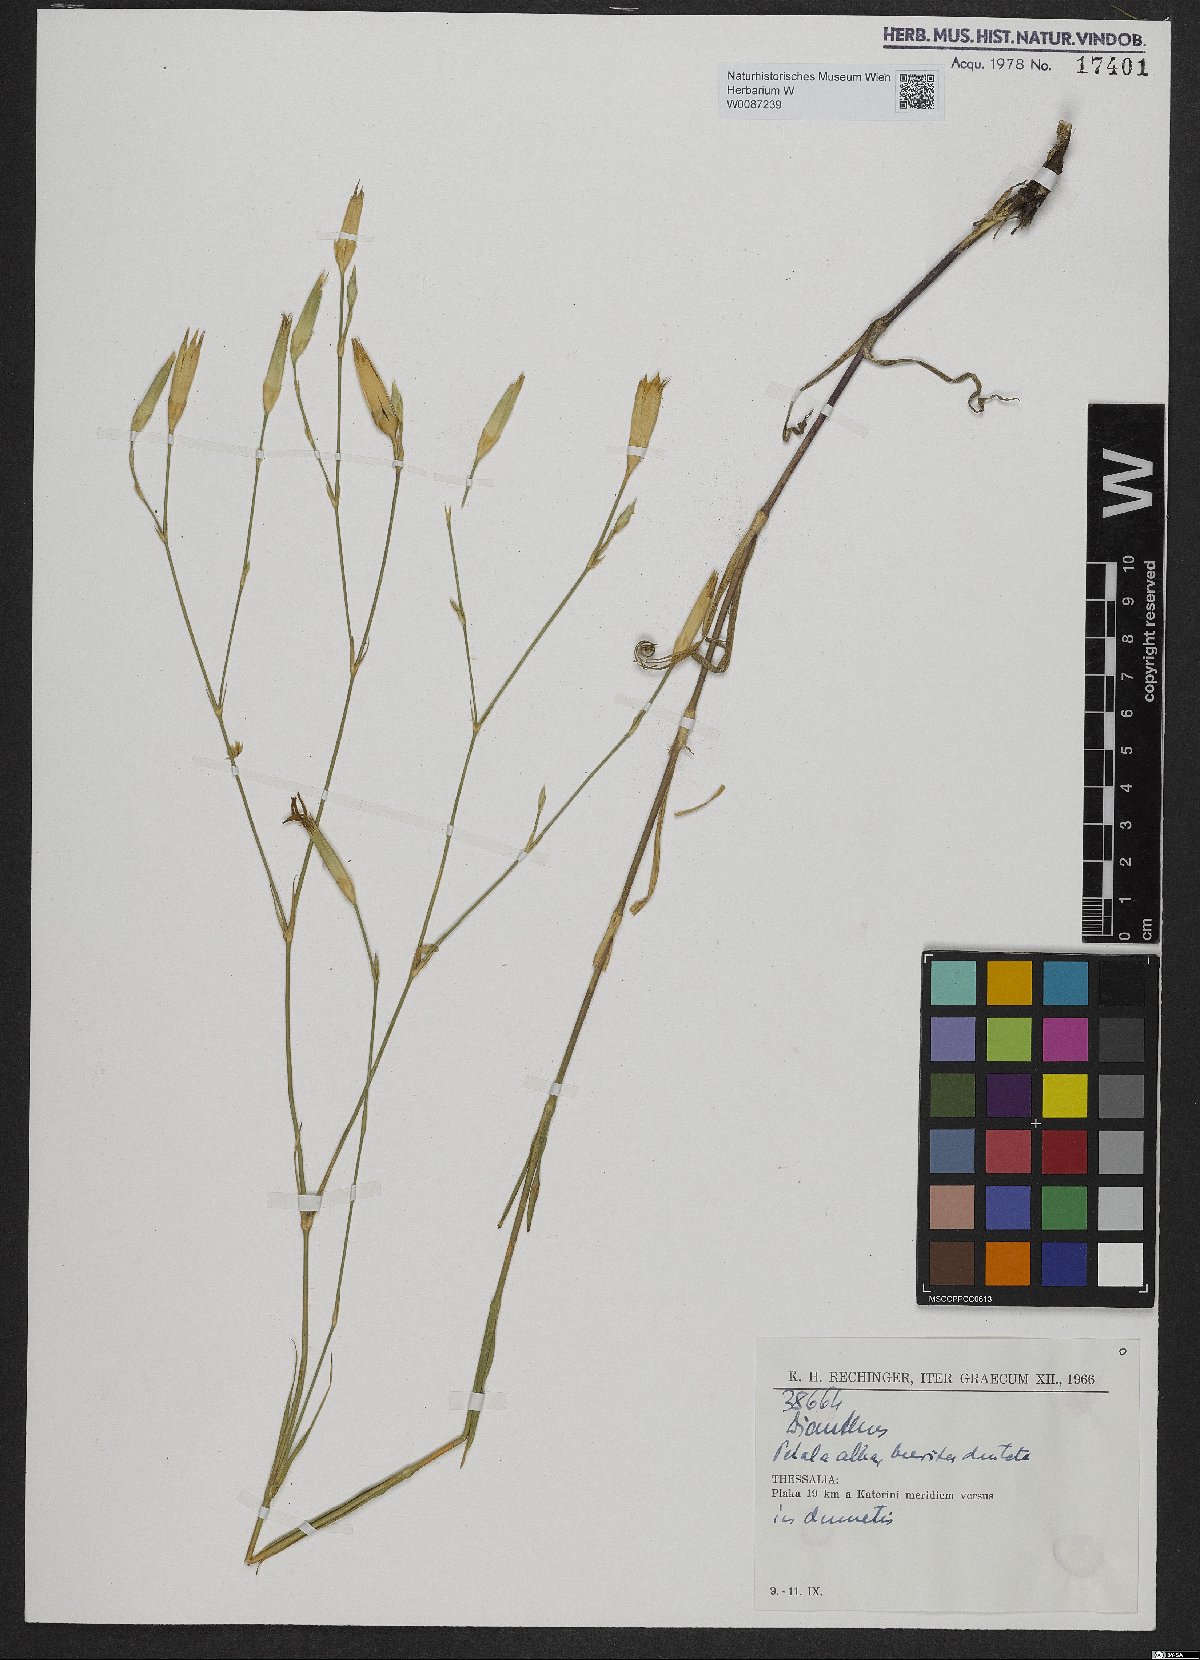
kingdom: Plantae
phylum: Tracheophyta
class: Magnoliopsida
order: Caryophyllales
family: Caryophyllaceae
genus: Dianthus
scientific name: Dianthus
